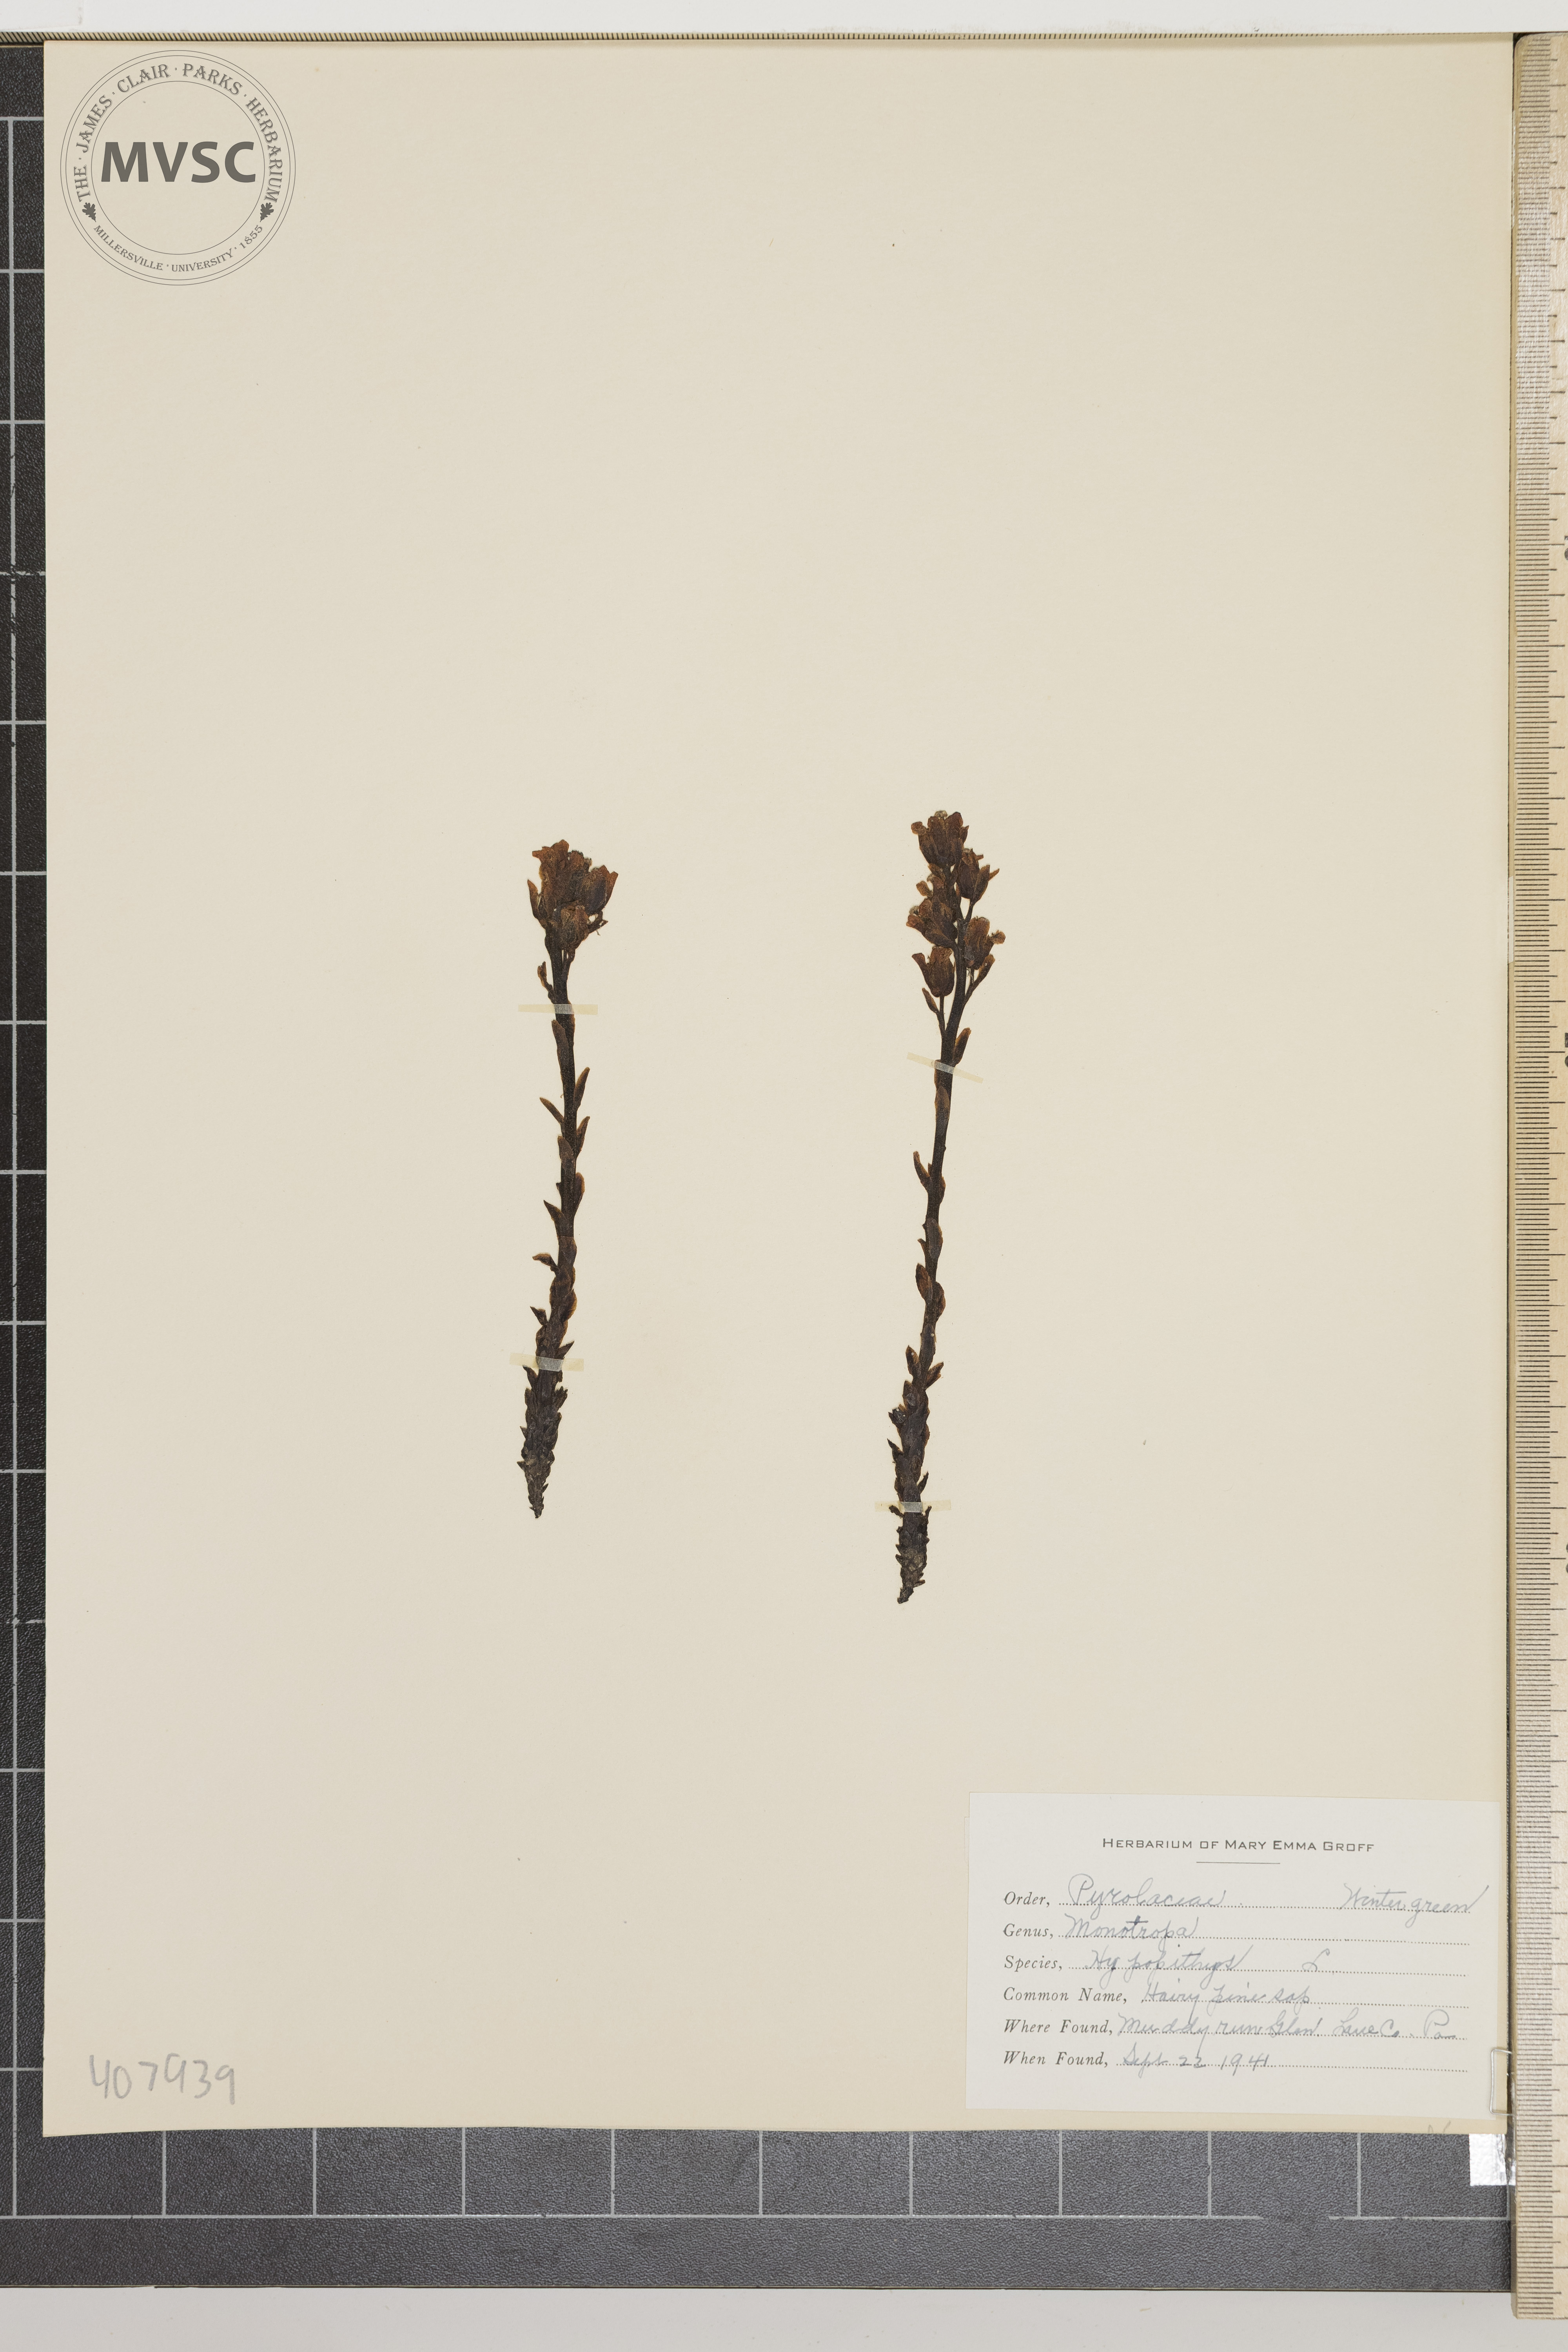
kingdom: Plantae
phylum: Tracheophyta
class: Magnoliopsida
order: Ericales
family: Ericaceae
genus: Hypopitys
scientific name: Hypopitys monotropa
